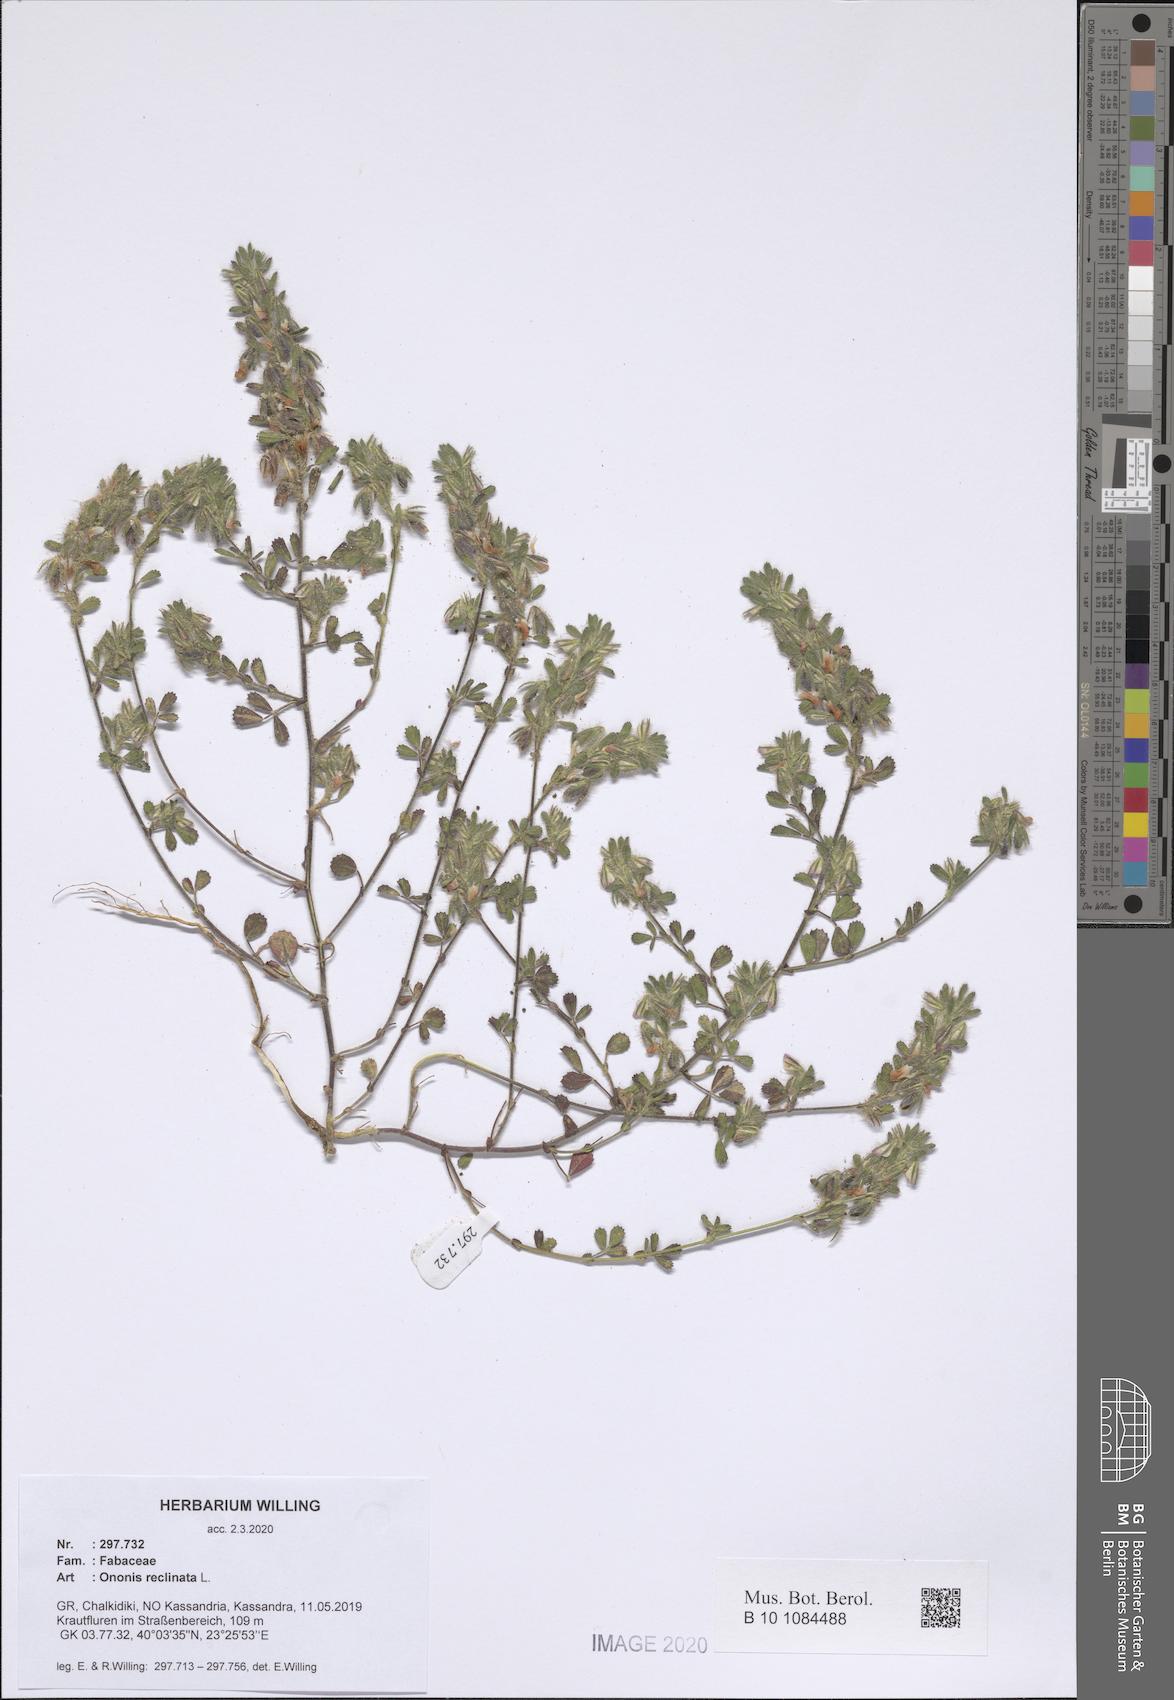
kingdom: Plantae
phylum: Tracheophyta
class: Magnoliopsida
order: Fabales
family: Fabaceae
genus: Ononis
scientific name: Ononis reclinata
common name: Small restharrow
